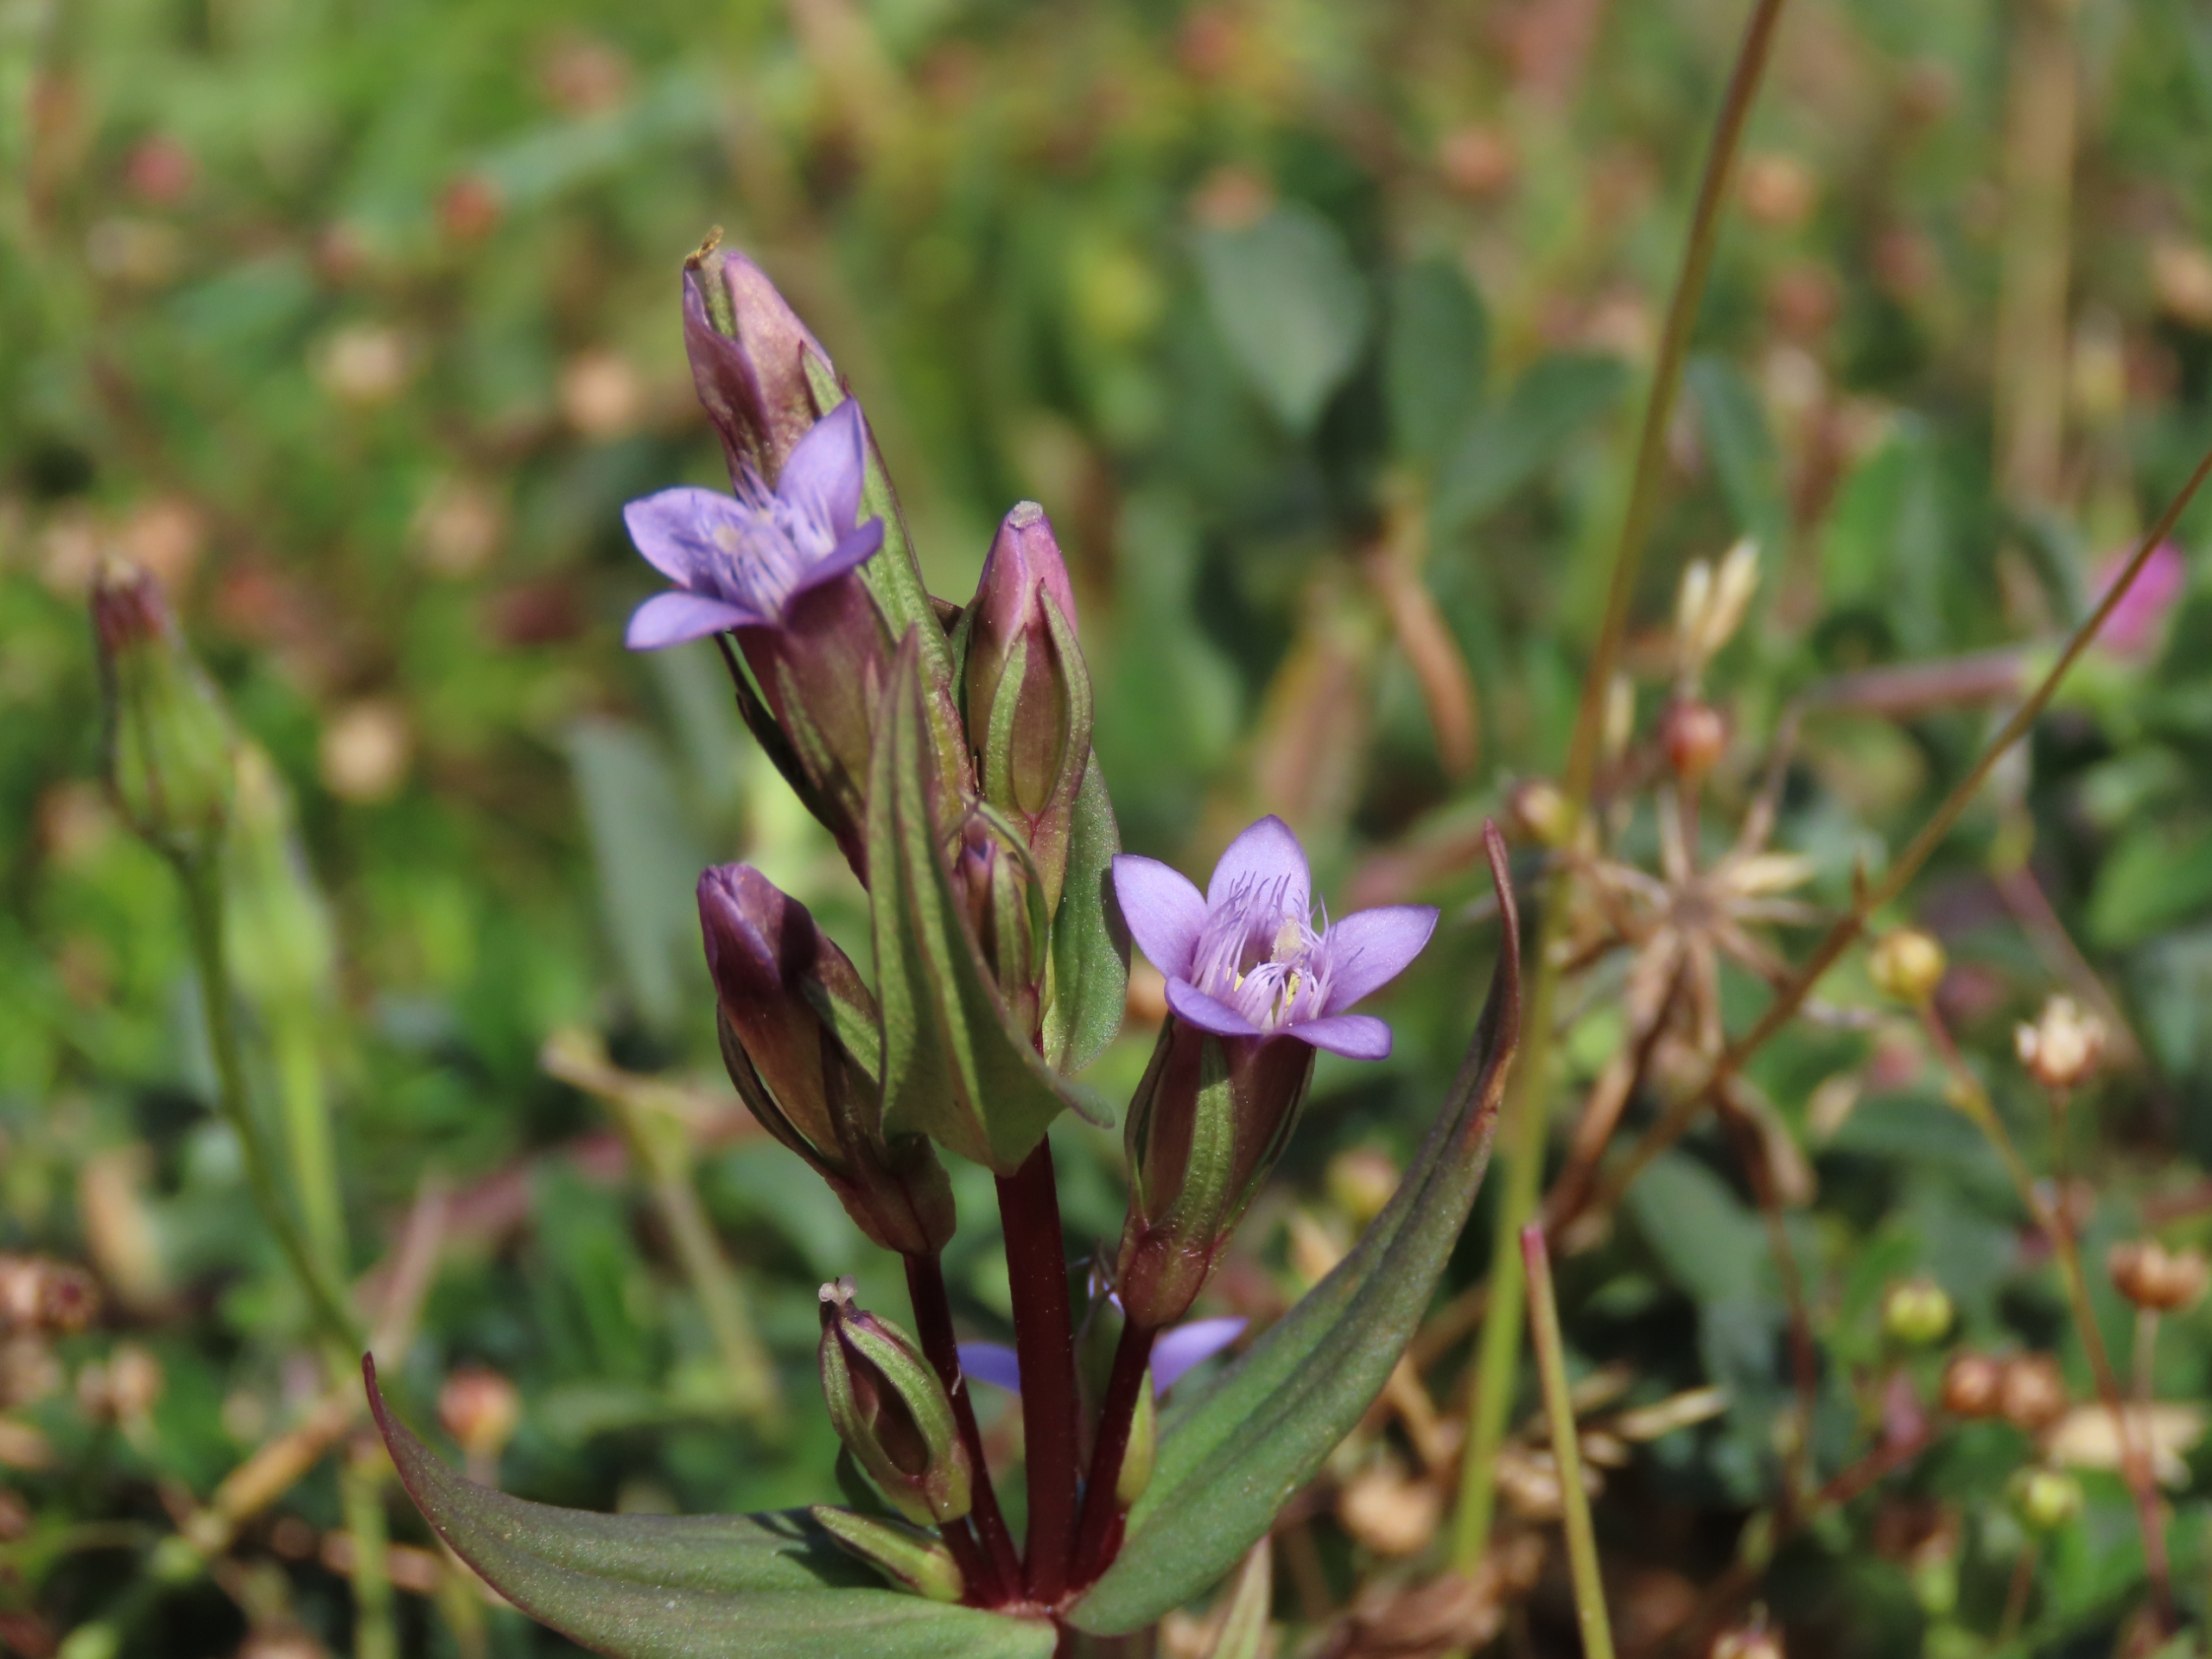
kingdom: Plantae
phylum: Tracheophyta
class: Magnoliopsida
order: Gentianales
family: Gentianaceae
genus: Gentianella
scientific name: Gentianella uliginosa
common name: Eng-ensian
